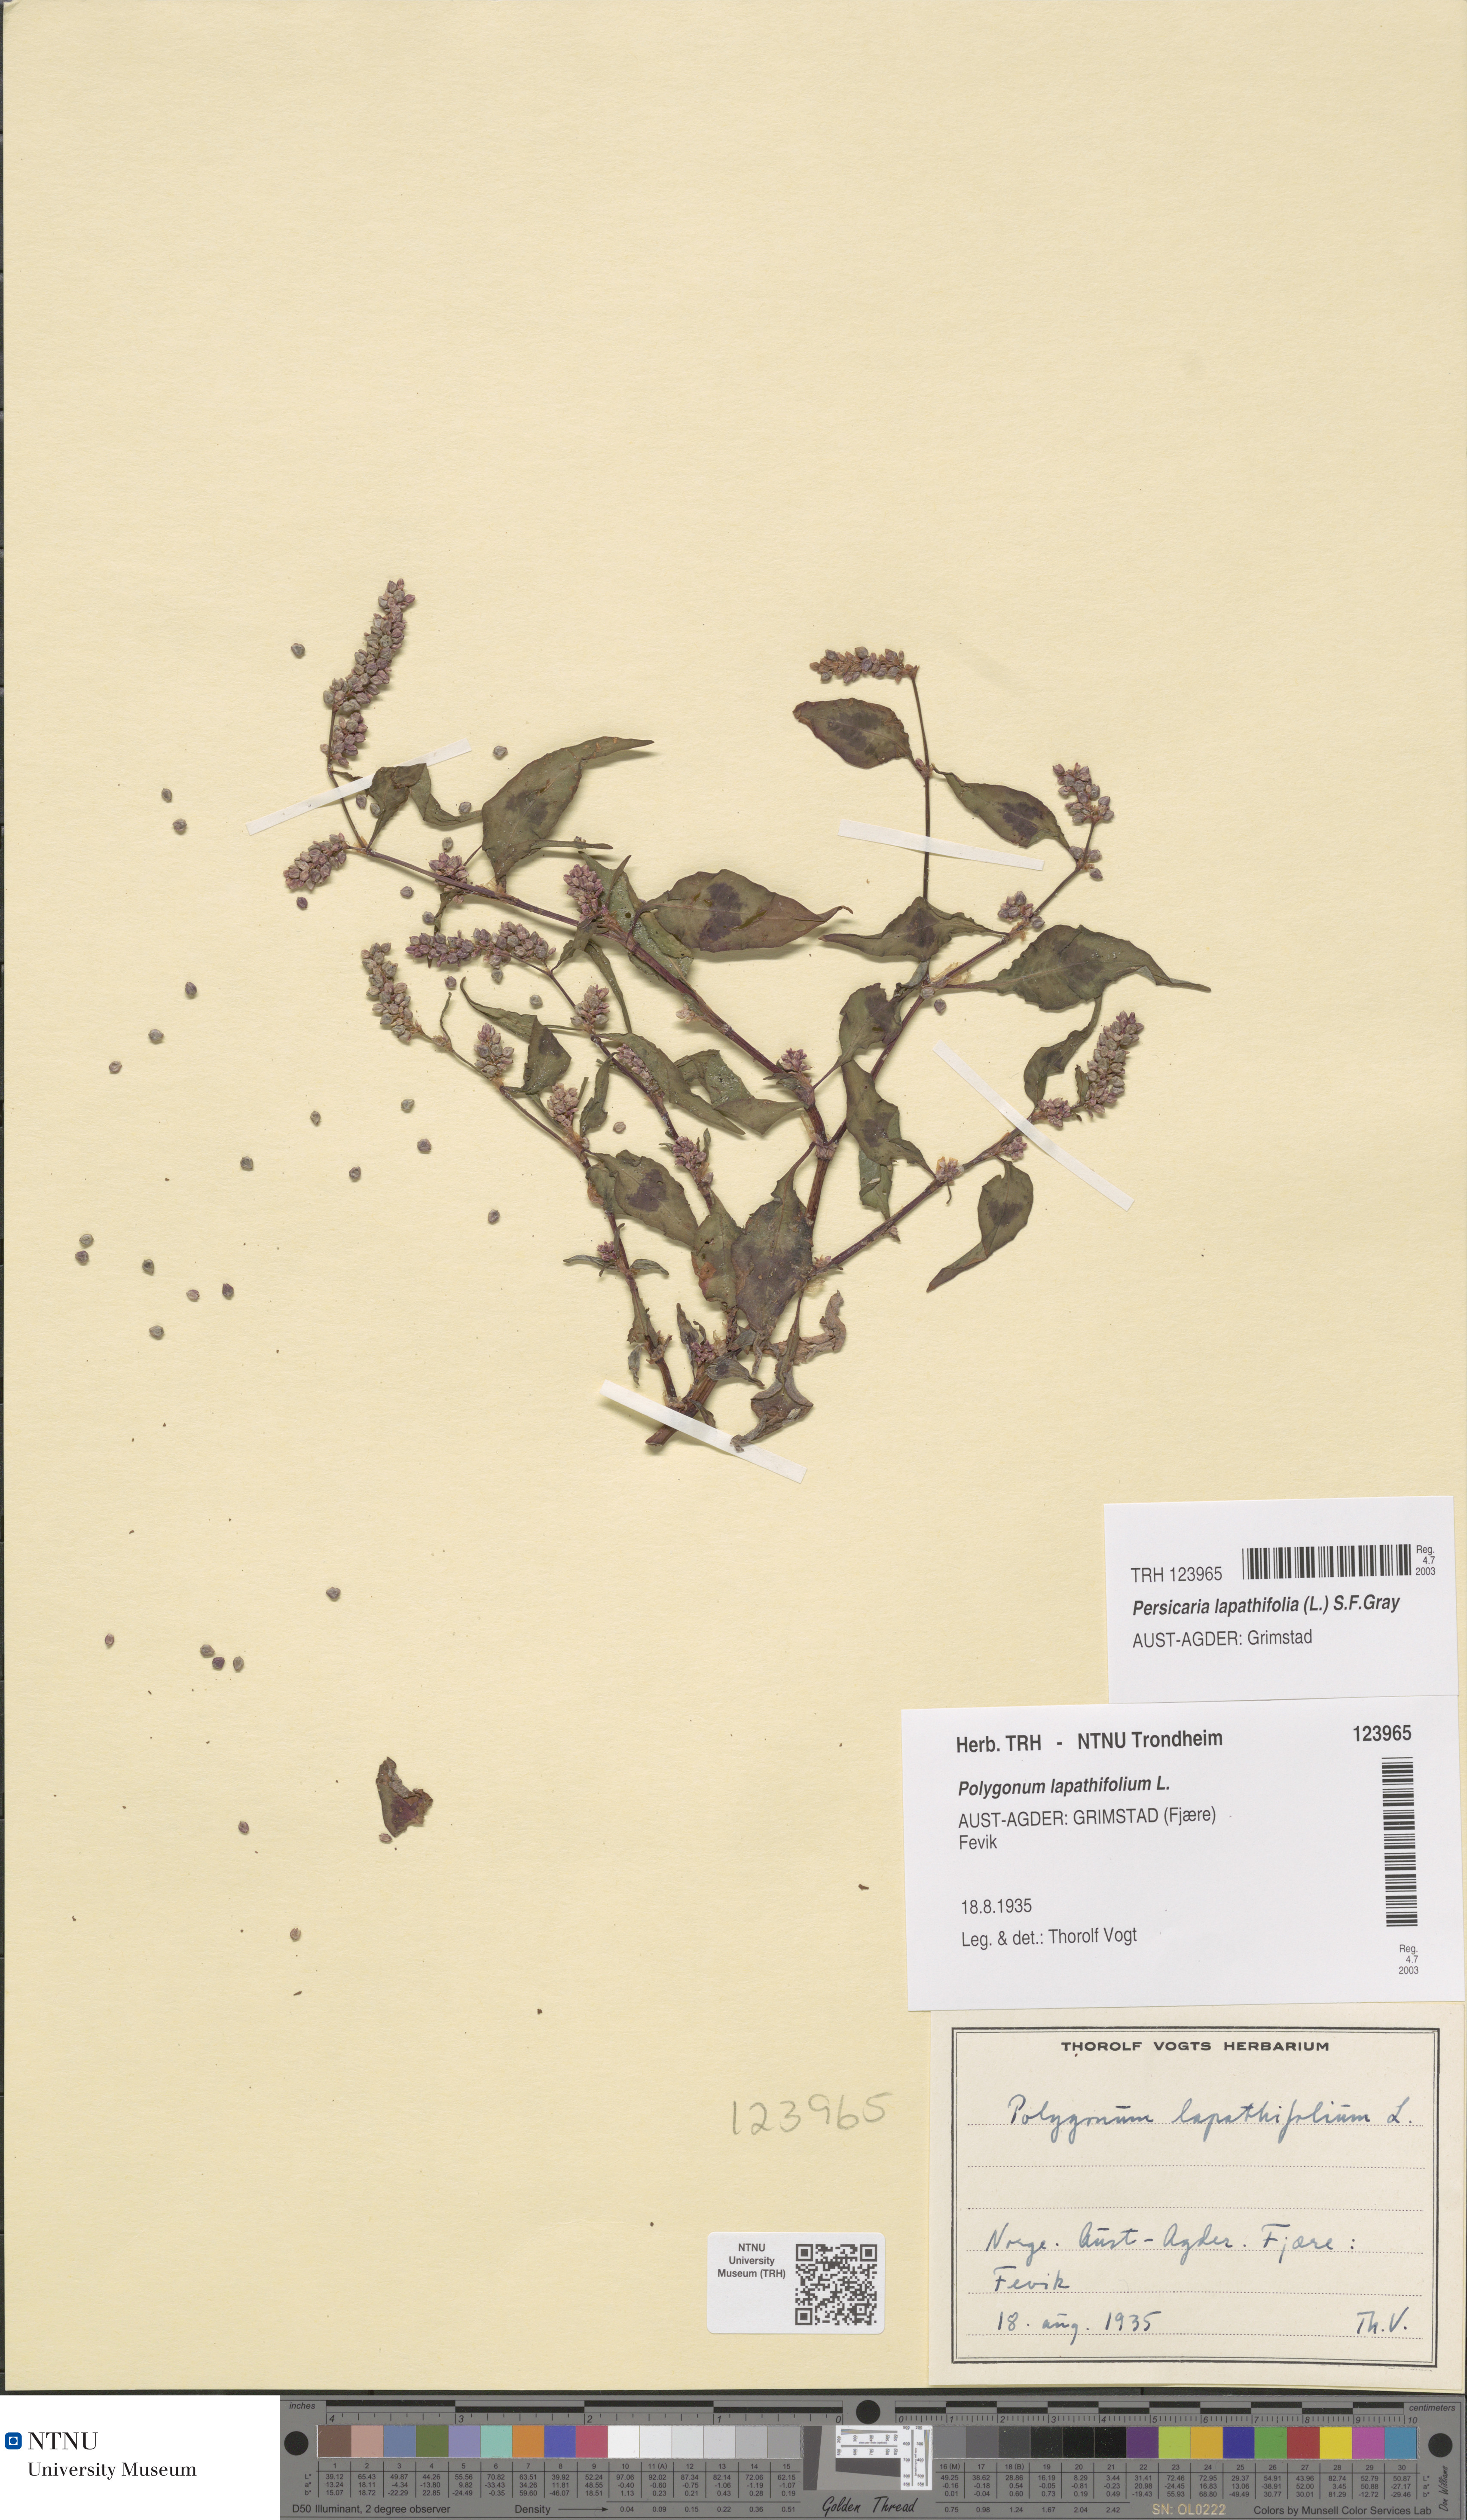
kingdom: Plantae
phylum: Tracheophyta
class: Magnoliopsida
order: Caryophyllales
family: Polygonaceae
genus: Persicaria
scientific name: Persicaria lapathifolia
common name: Curlytop knotweed
